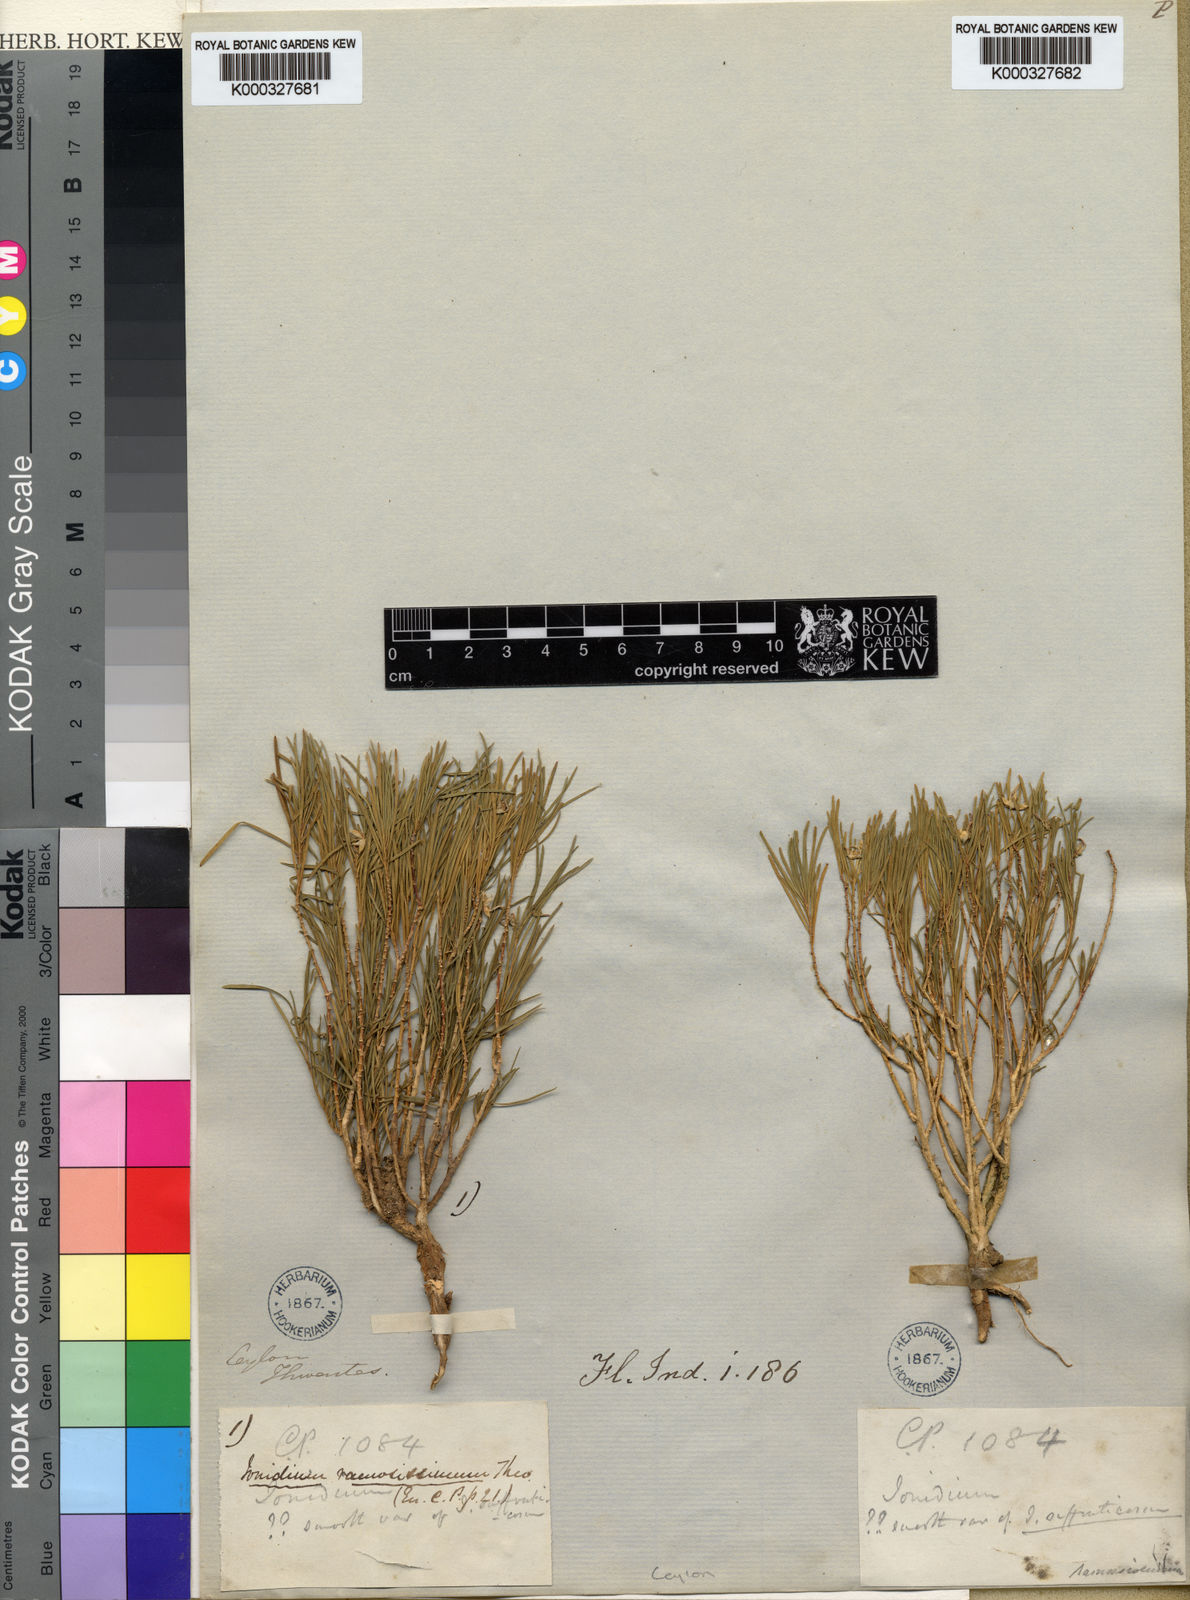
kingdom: Plantae
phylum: Tracheophyta
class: Magnoliopsida
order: Malpighiales
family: Violaceae
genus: Pigea
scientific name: Pigea ramosissima
